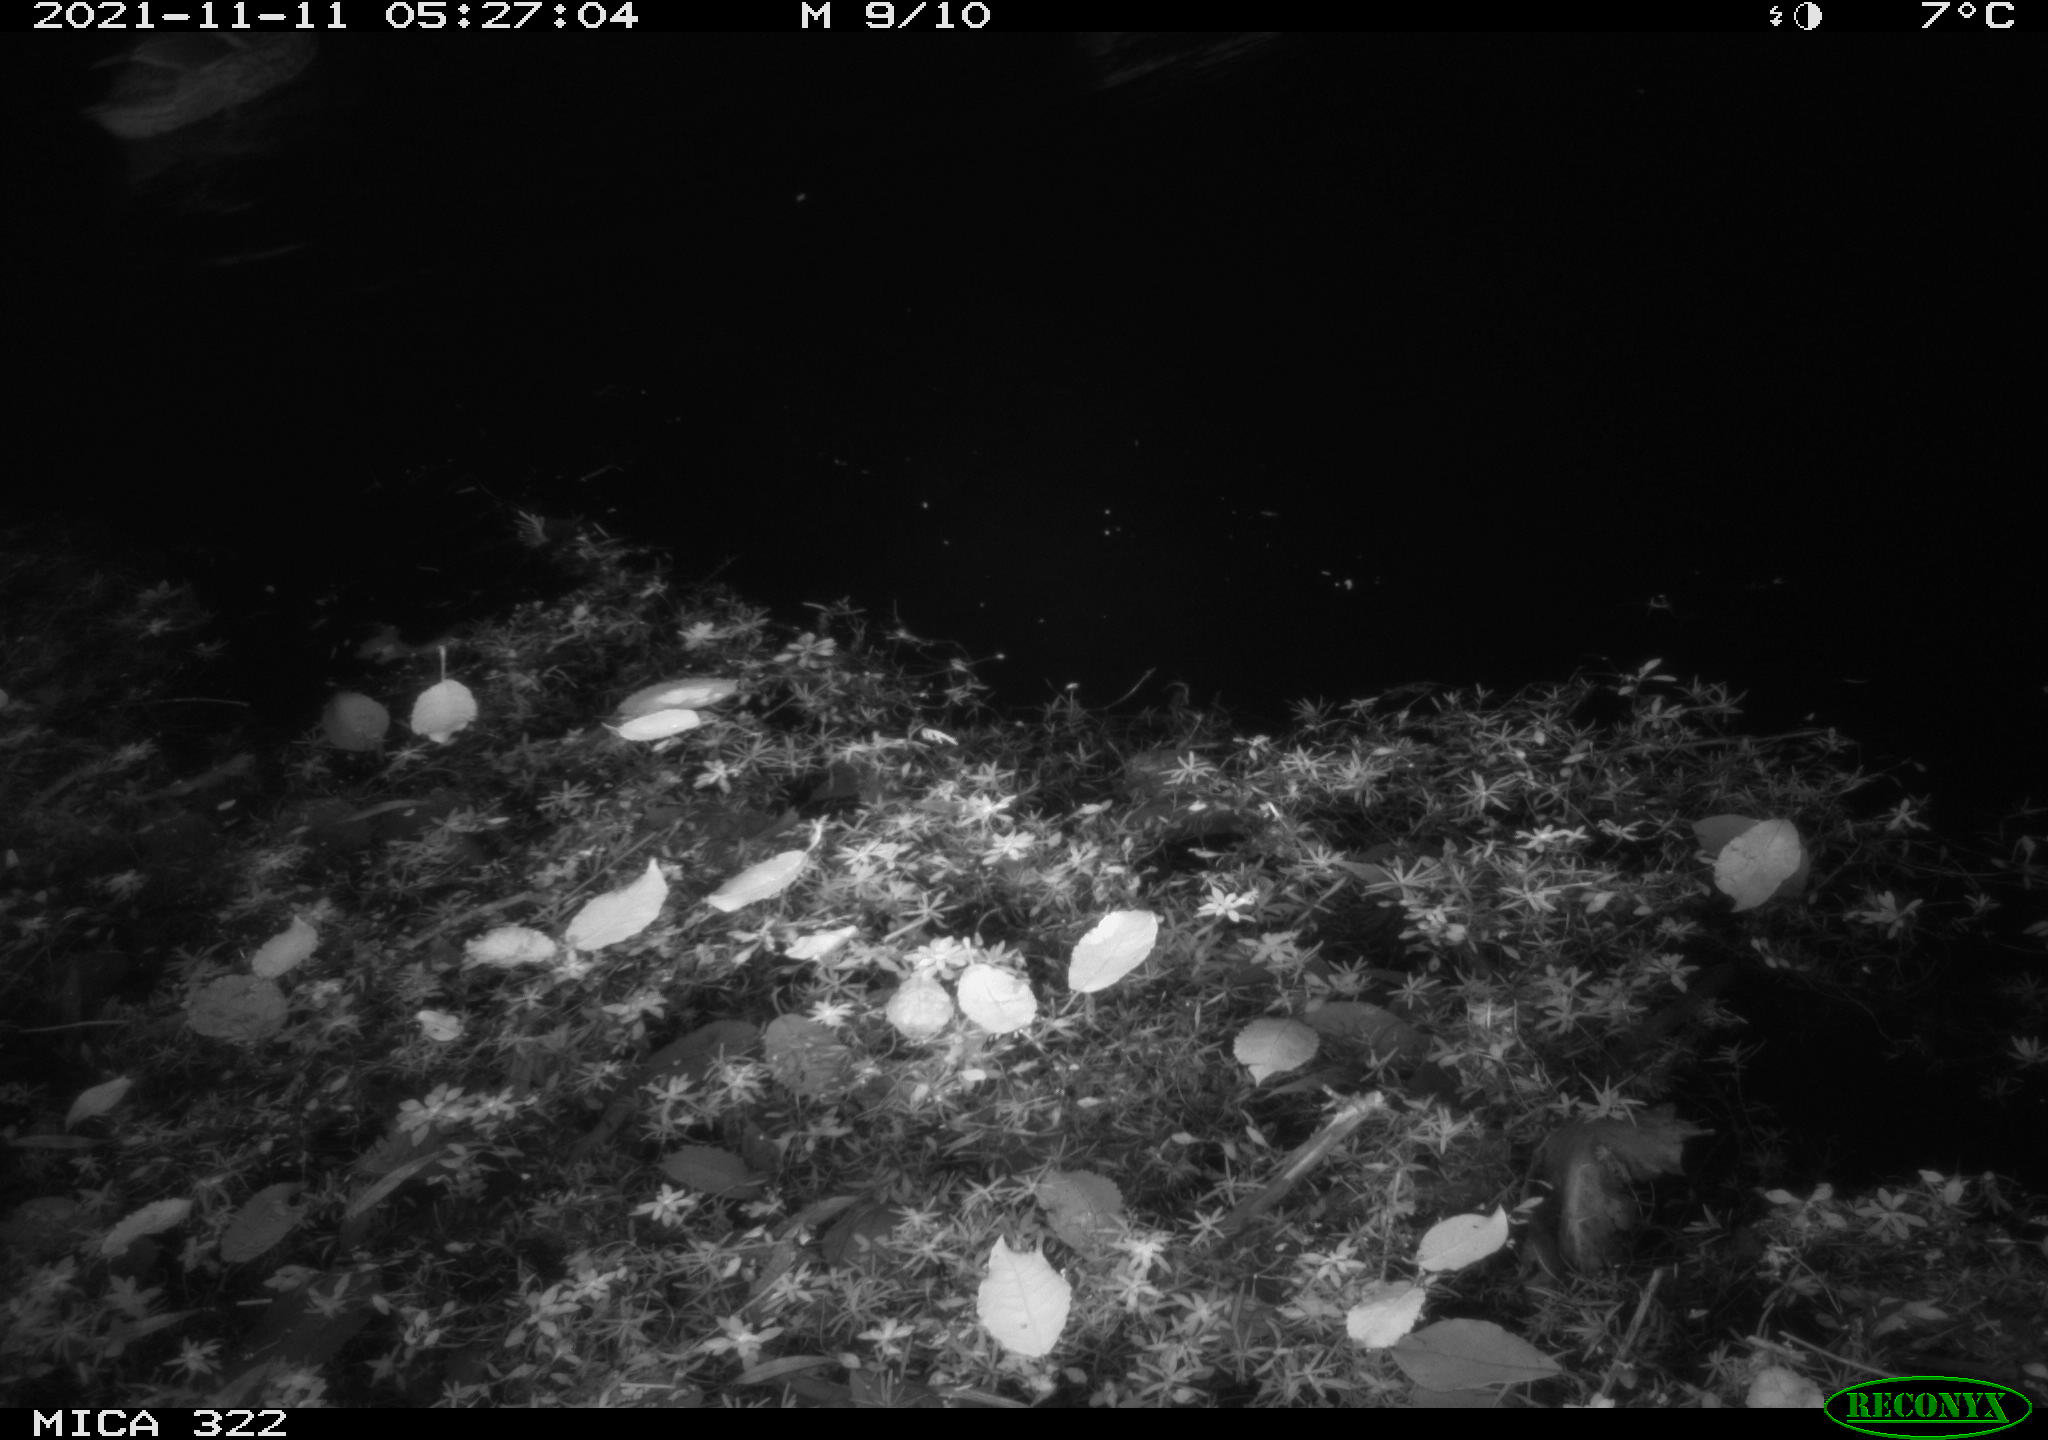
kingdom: Animalia
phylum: Chordata
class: Mammalia
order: Rodentia
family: Muridae
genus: Rattus
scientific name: Rattus norvegicus
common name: Brown rat
